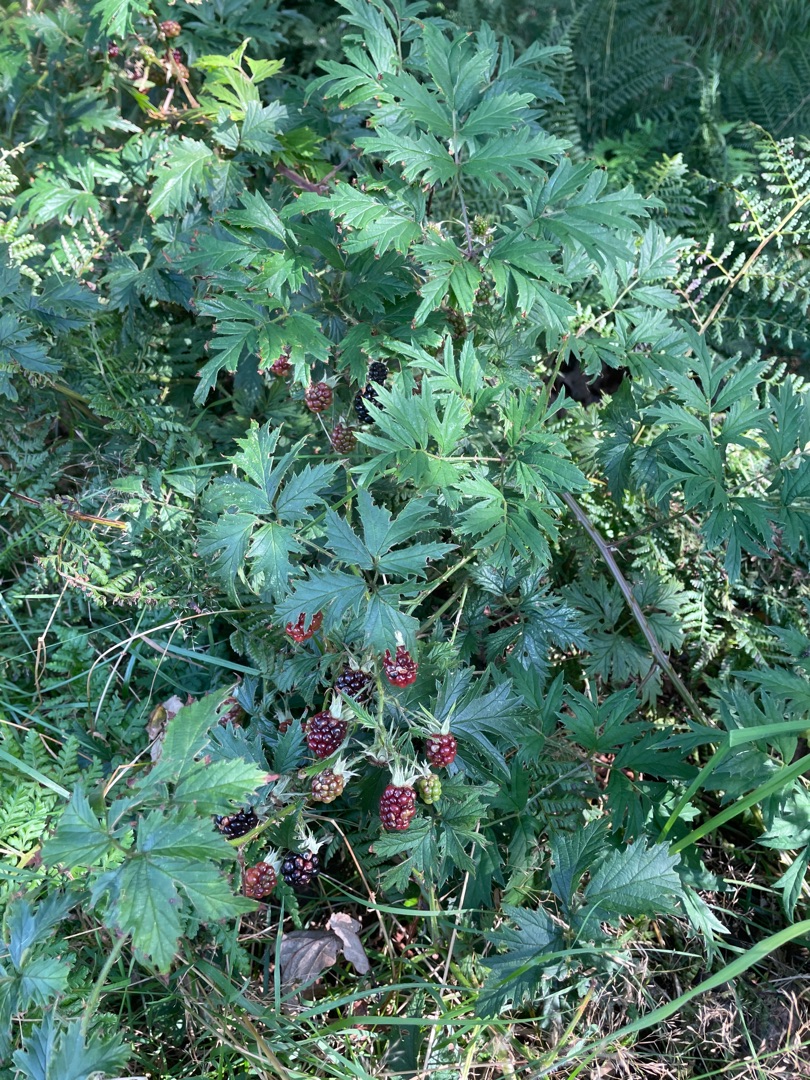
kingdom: Plantae
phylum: Tracheophyta
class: Magnoliopsida
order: Rosales
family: Rosaceae
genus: Rubus
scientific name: Rubus laciniatus
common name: Fliget brombær
